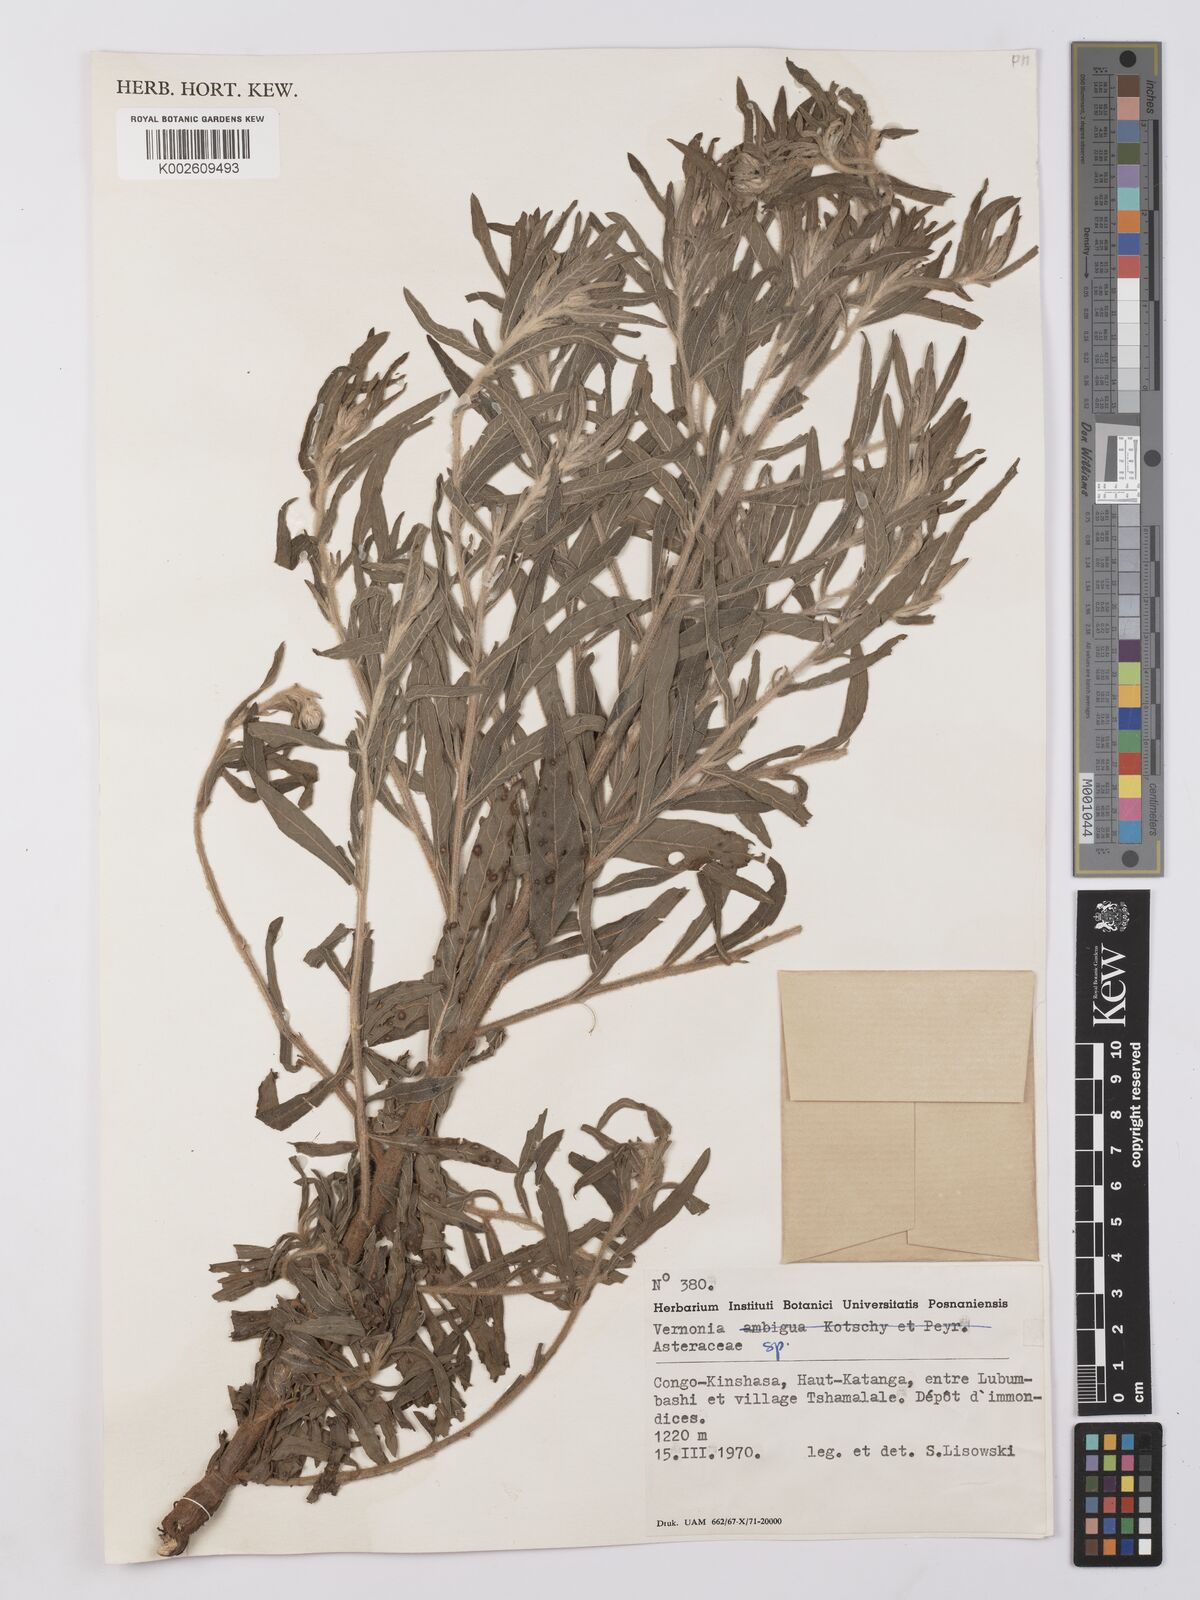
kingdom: Plantae
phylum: Tracheophyta
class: Magnoliopsida
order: Asterales
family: Asteraceae
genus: Vernonia
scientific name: Vernonia
